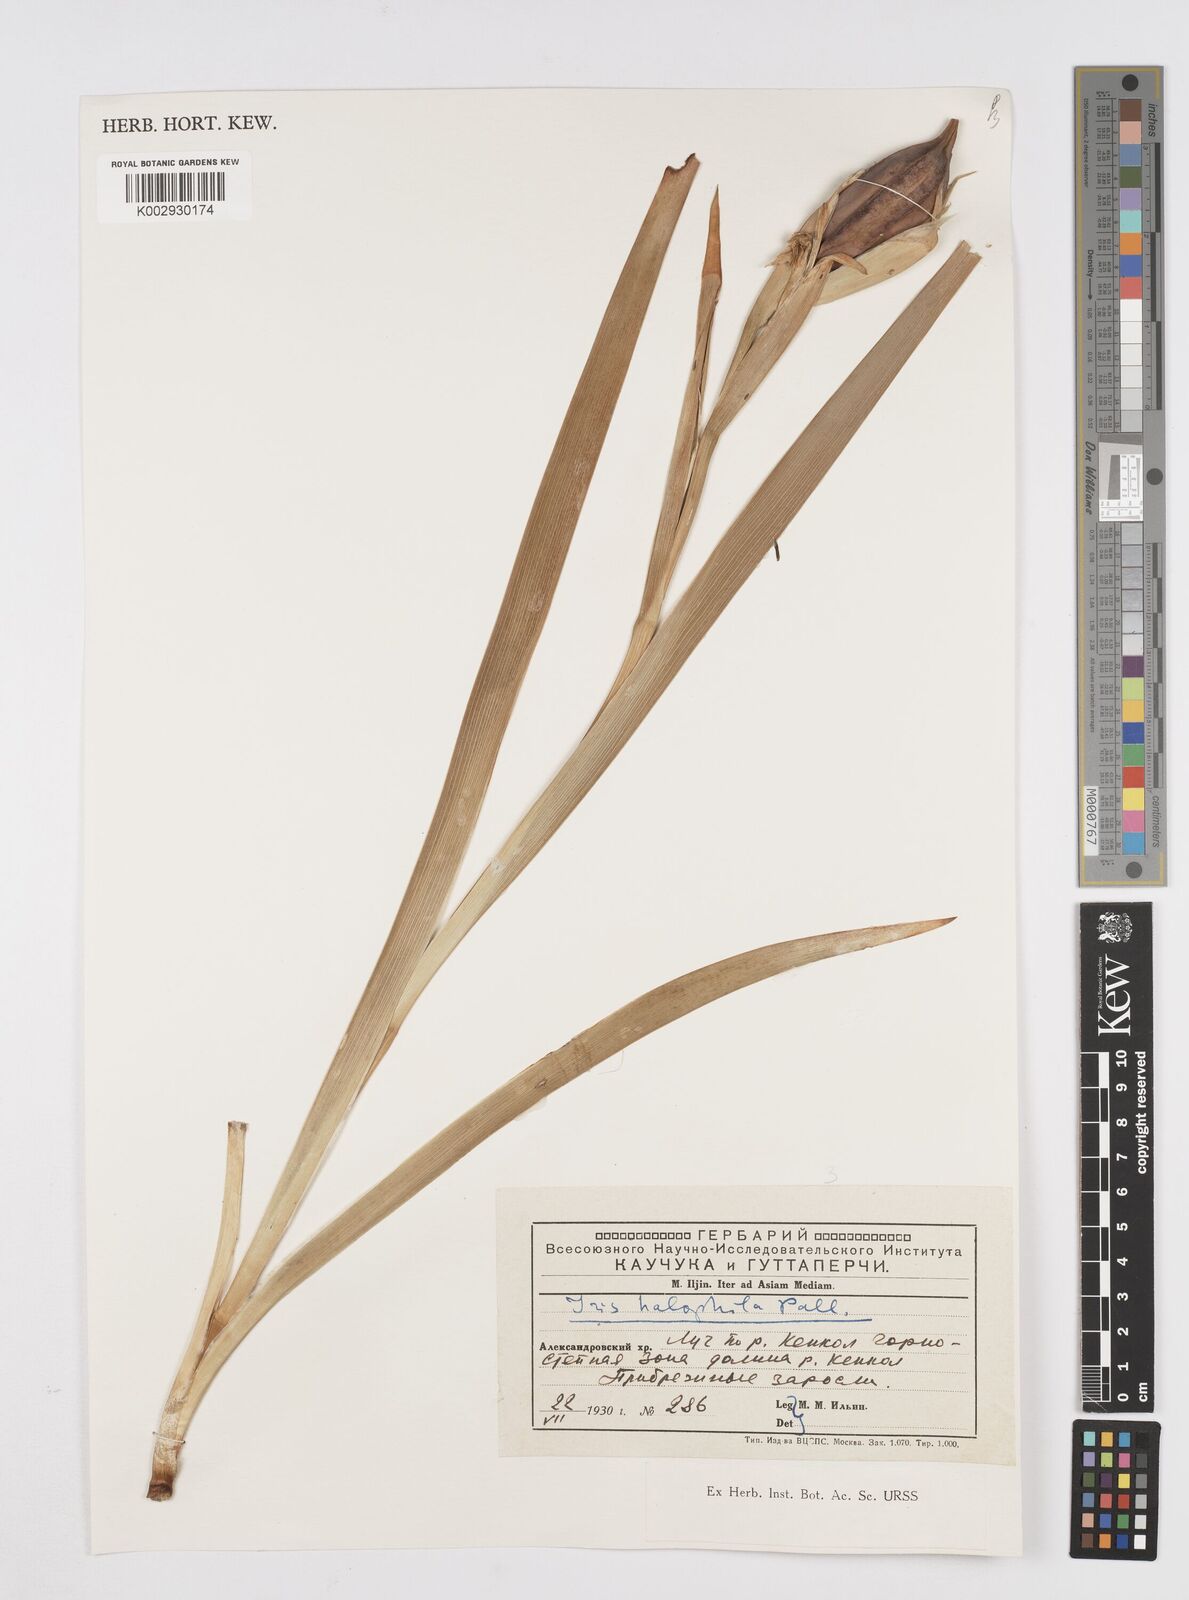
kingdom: Plantae
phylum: Tracheophyta
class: Liliopsida
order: Asparagales
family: Iridaceae
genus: Iris
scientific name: Iris halophila
